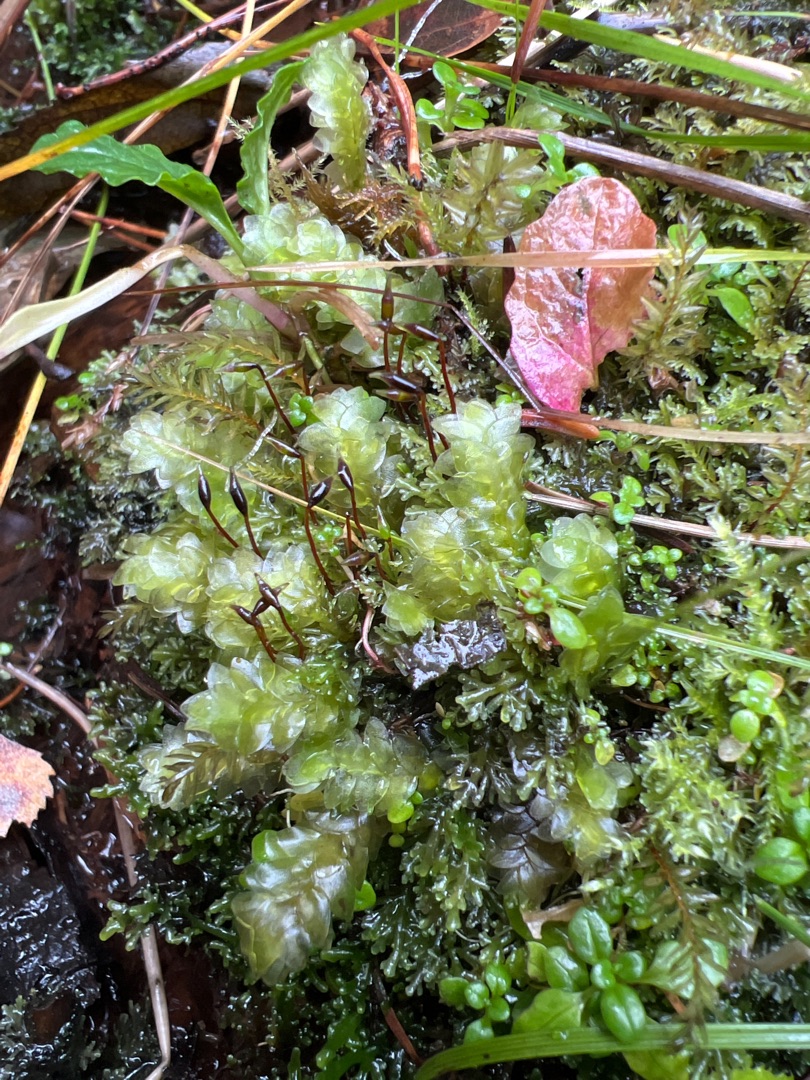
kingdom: Plantae
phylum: Bryophyta
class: Bryopsida
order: Hookeriales
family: Hookeriaceae
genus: Hookeria
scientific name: Hookeria lucens
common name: Skinnende dronningemos
